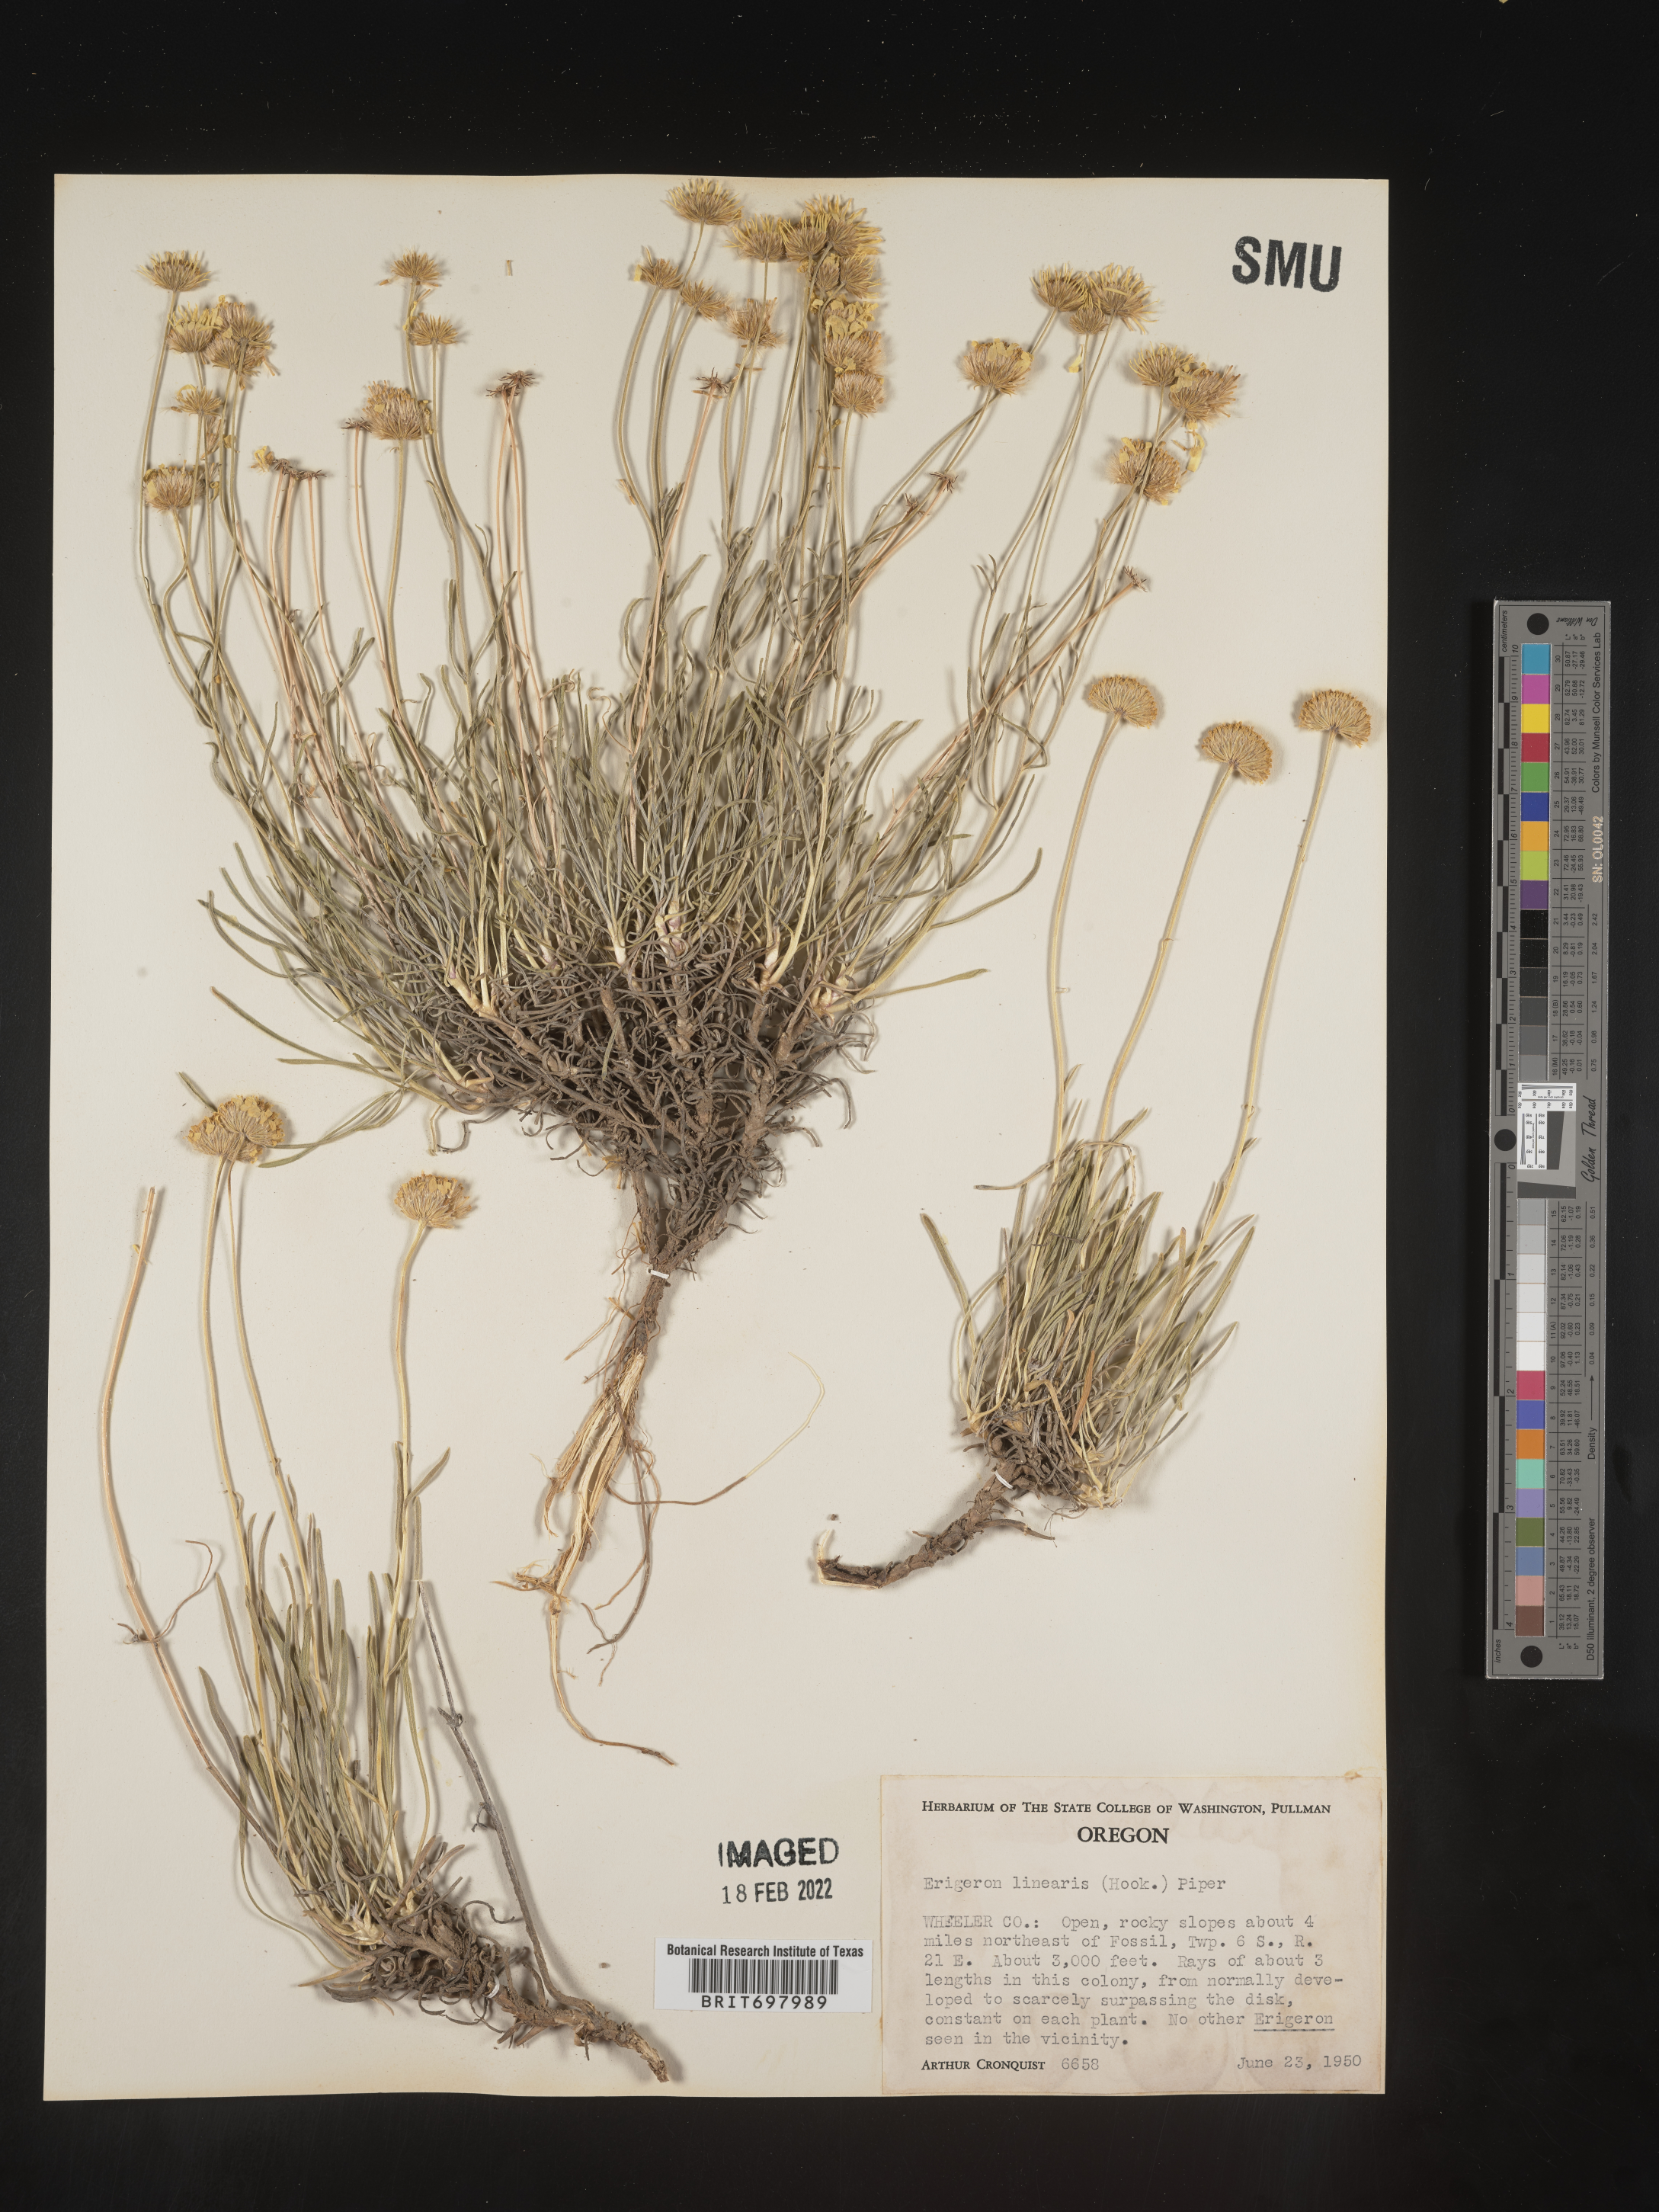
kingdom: Plantae
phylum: Tracheophyta
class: Magnoliopsida
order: Asterales
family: Asteraceae
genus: Erigeron
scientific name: Erigeron linearis
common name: Desert yellow fleabane
